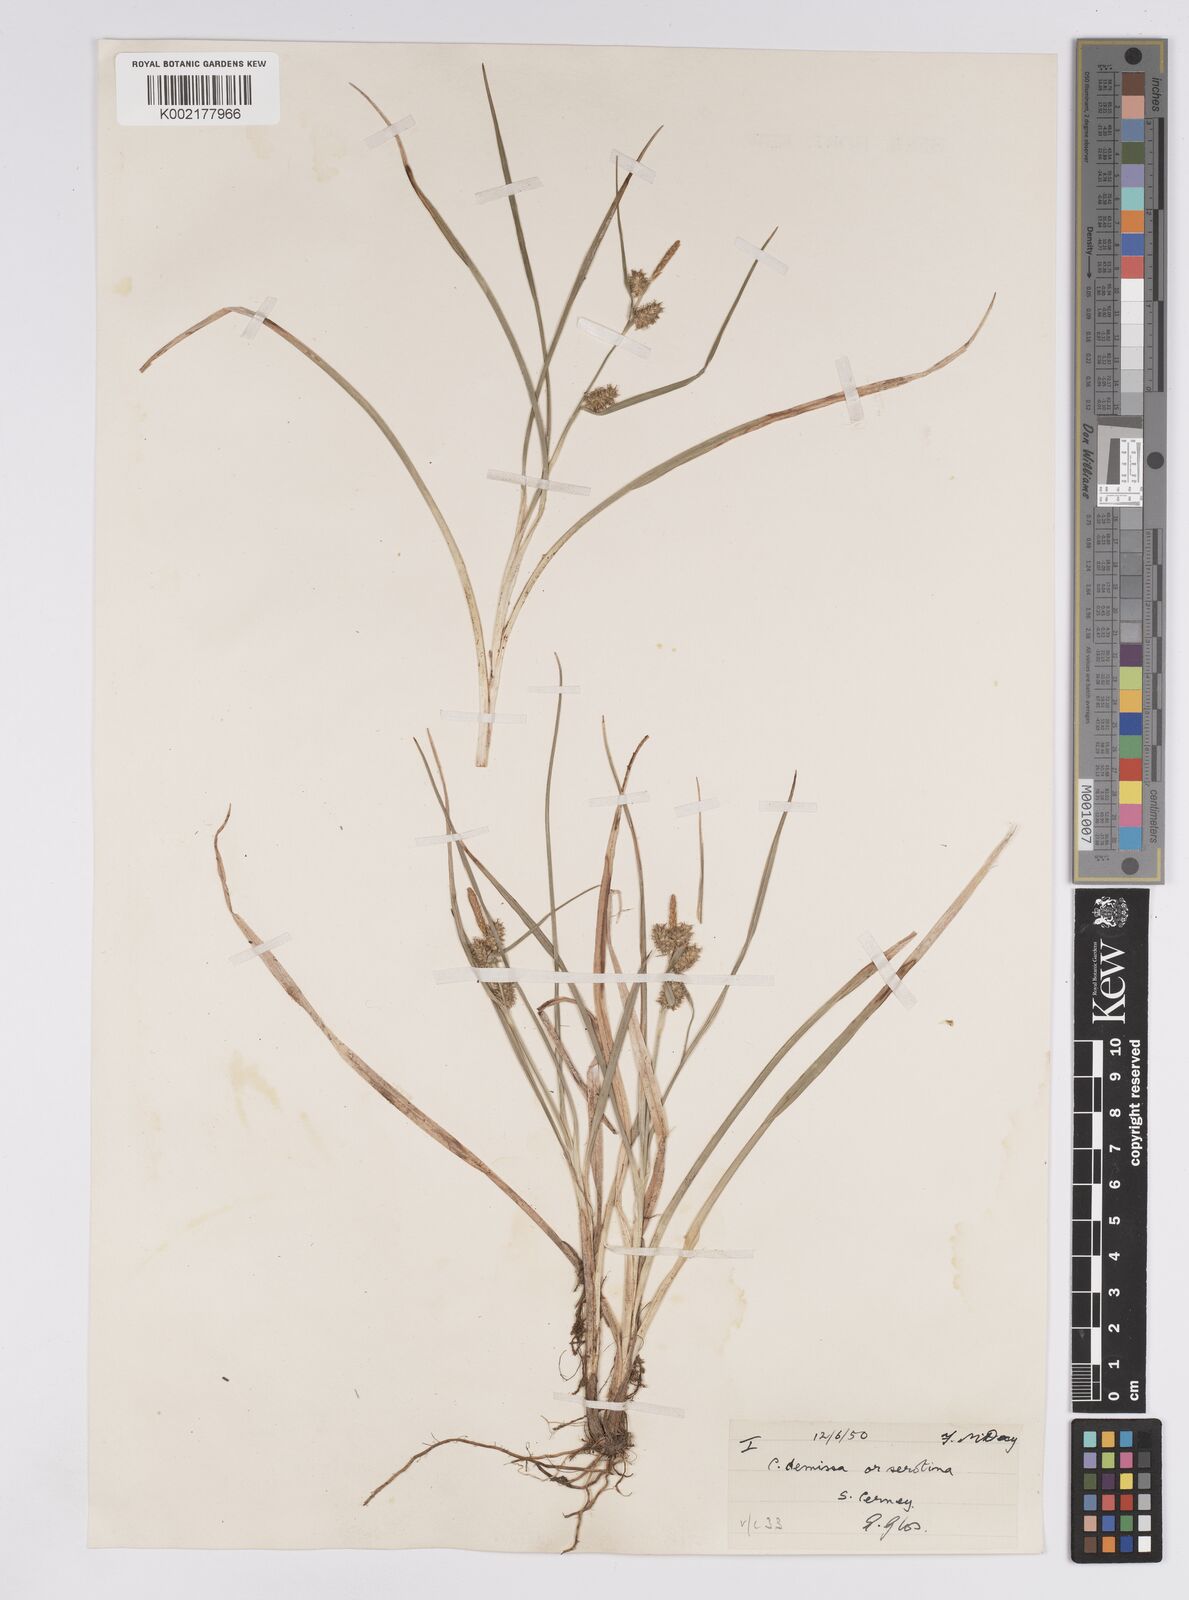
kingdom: Plantae
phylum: Tracheophyta
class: Liliopsida
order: Poales
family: Cyperaceae
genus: Carex
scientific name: Carex demissa
